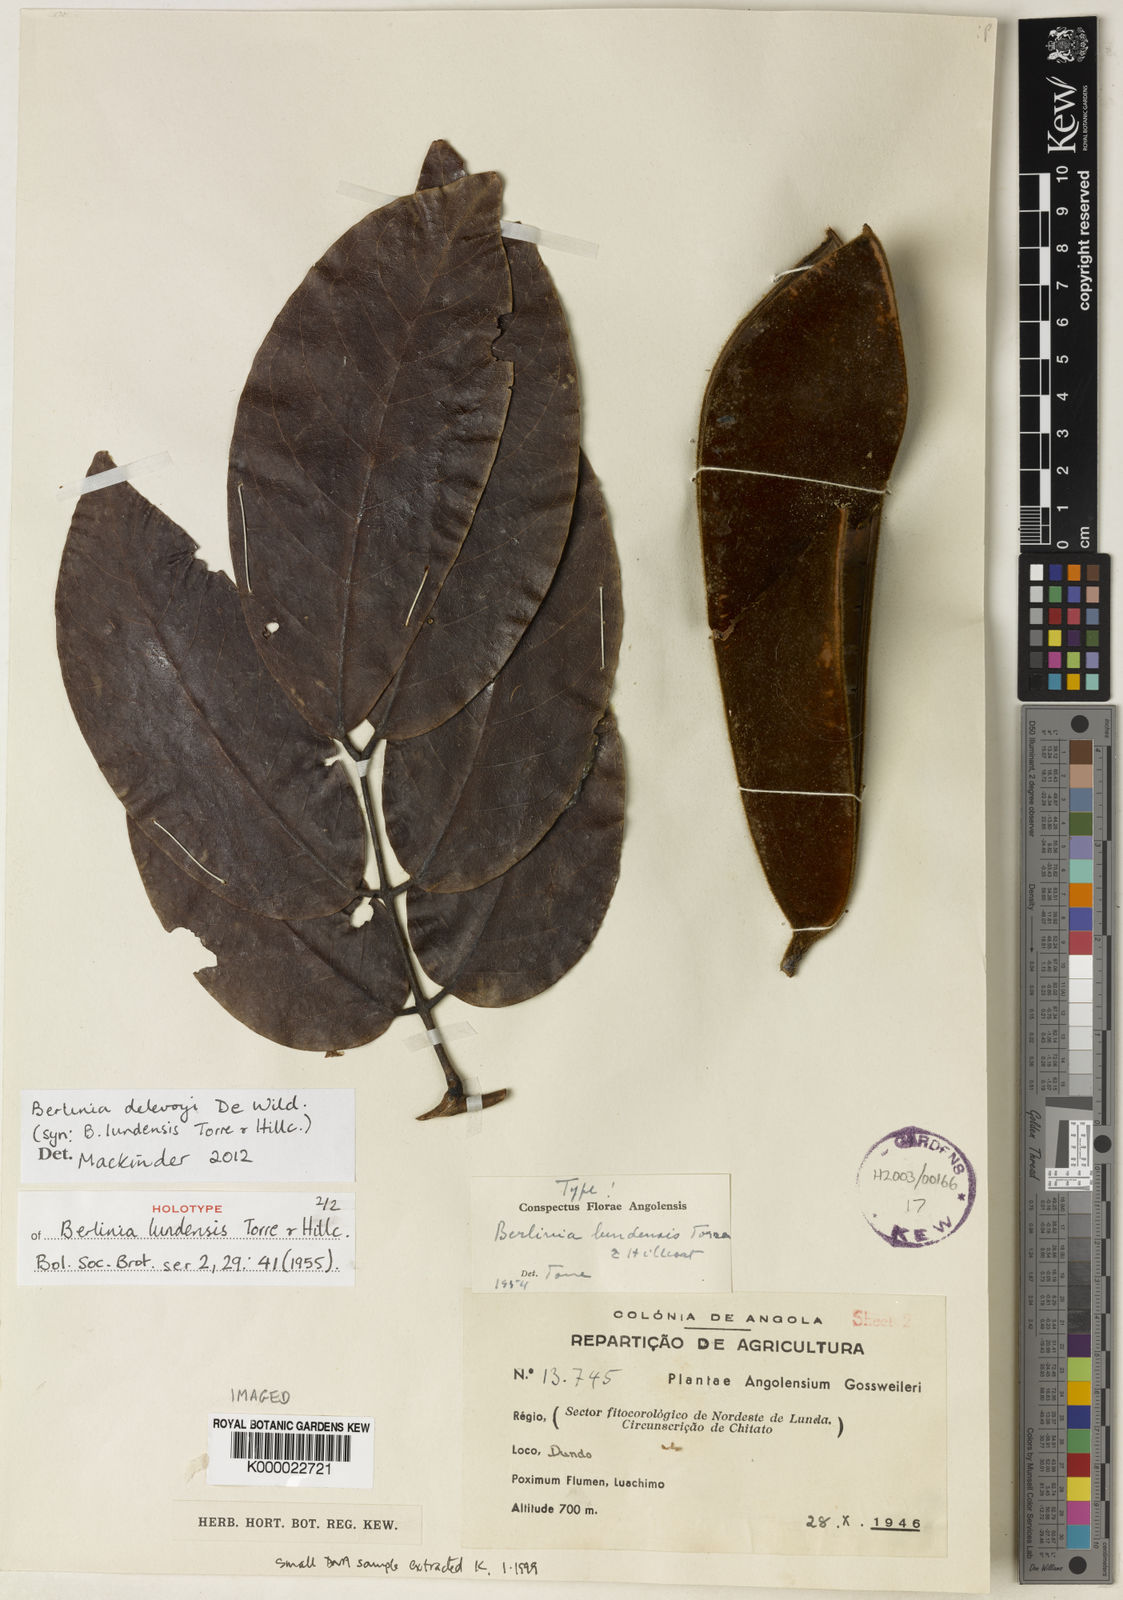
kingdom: Plantae
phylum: Tracheophyta
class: Magnoliopsida
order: Fabales
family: Fabaceae
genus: Berlinia
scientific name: Berlinia delevoyi
